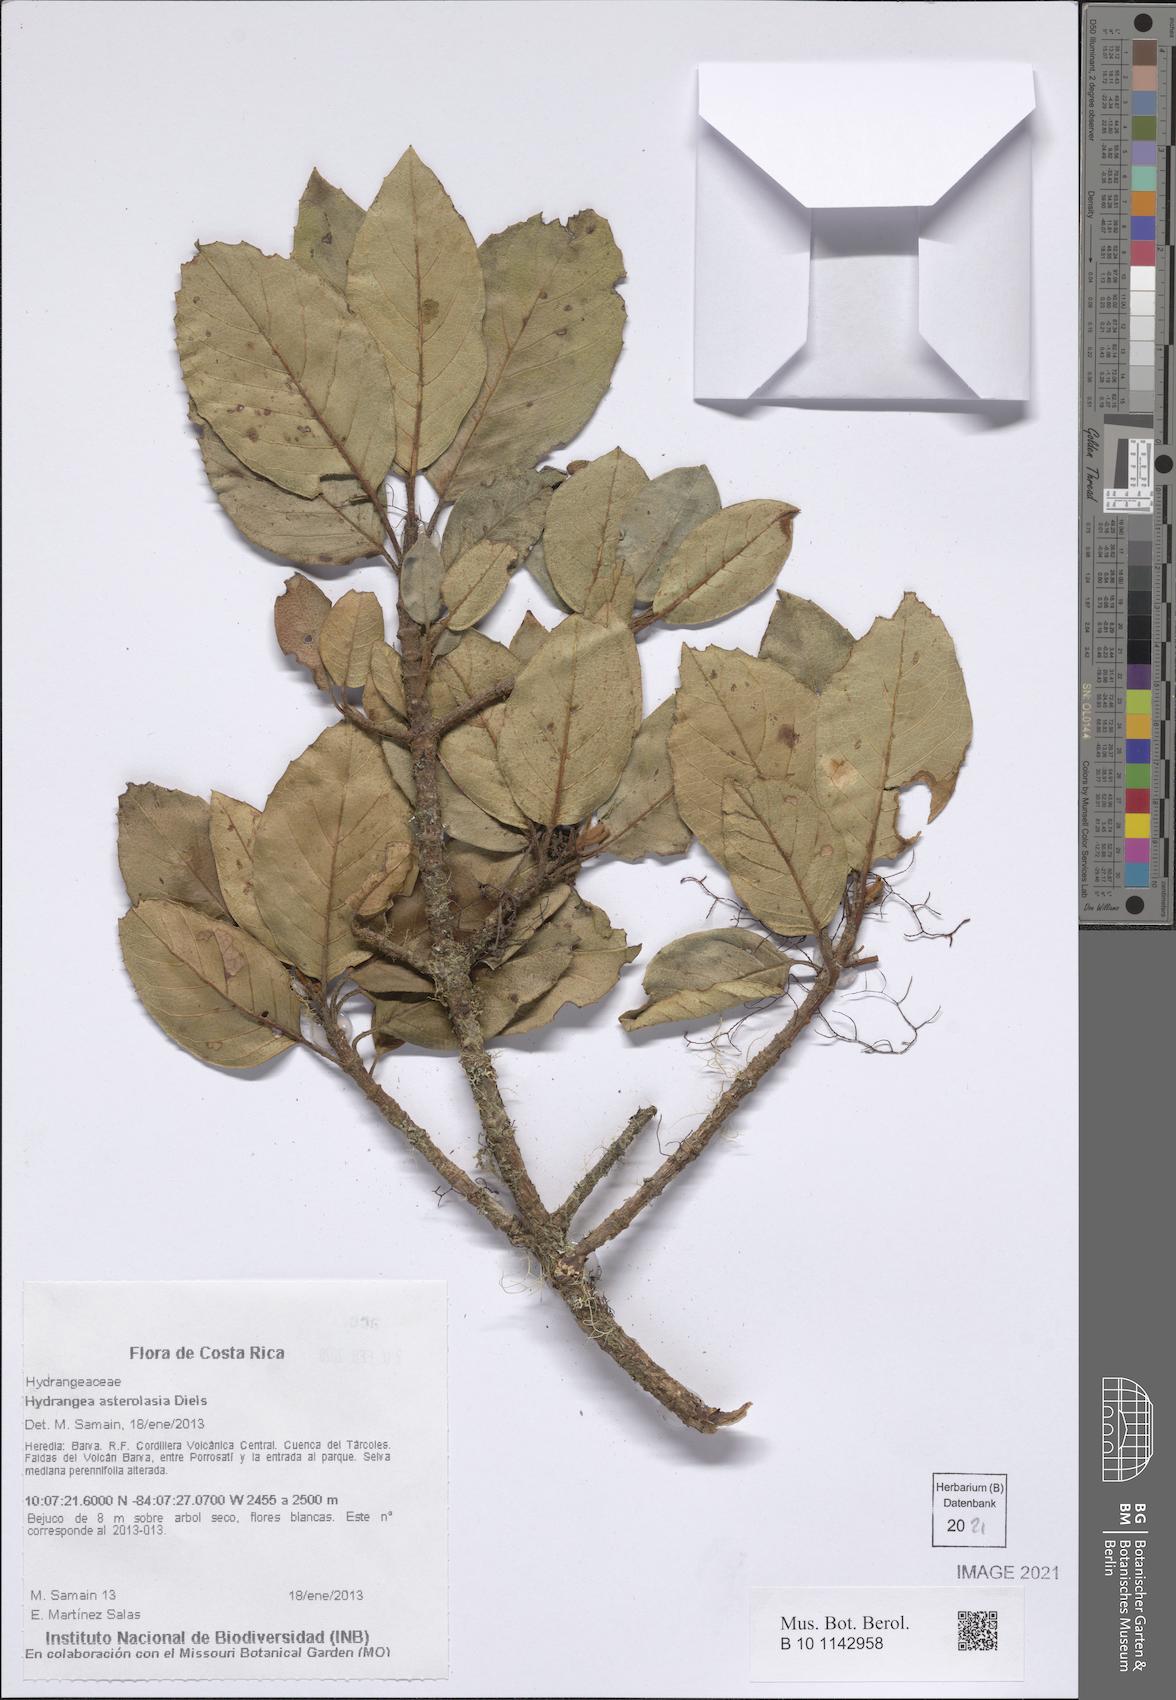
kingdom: Plantae
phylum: Tracheophyta
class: Magnoliopsida
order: Cornales
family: Hydrangeaceae
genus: Hydrangea
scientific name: Hydrangea asterolasia
